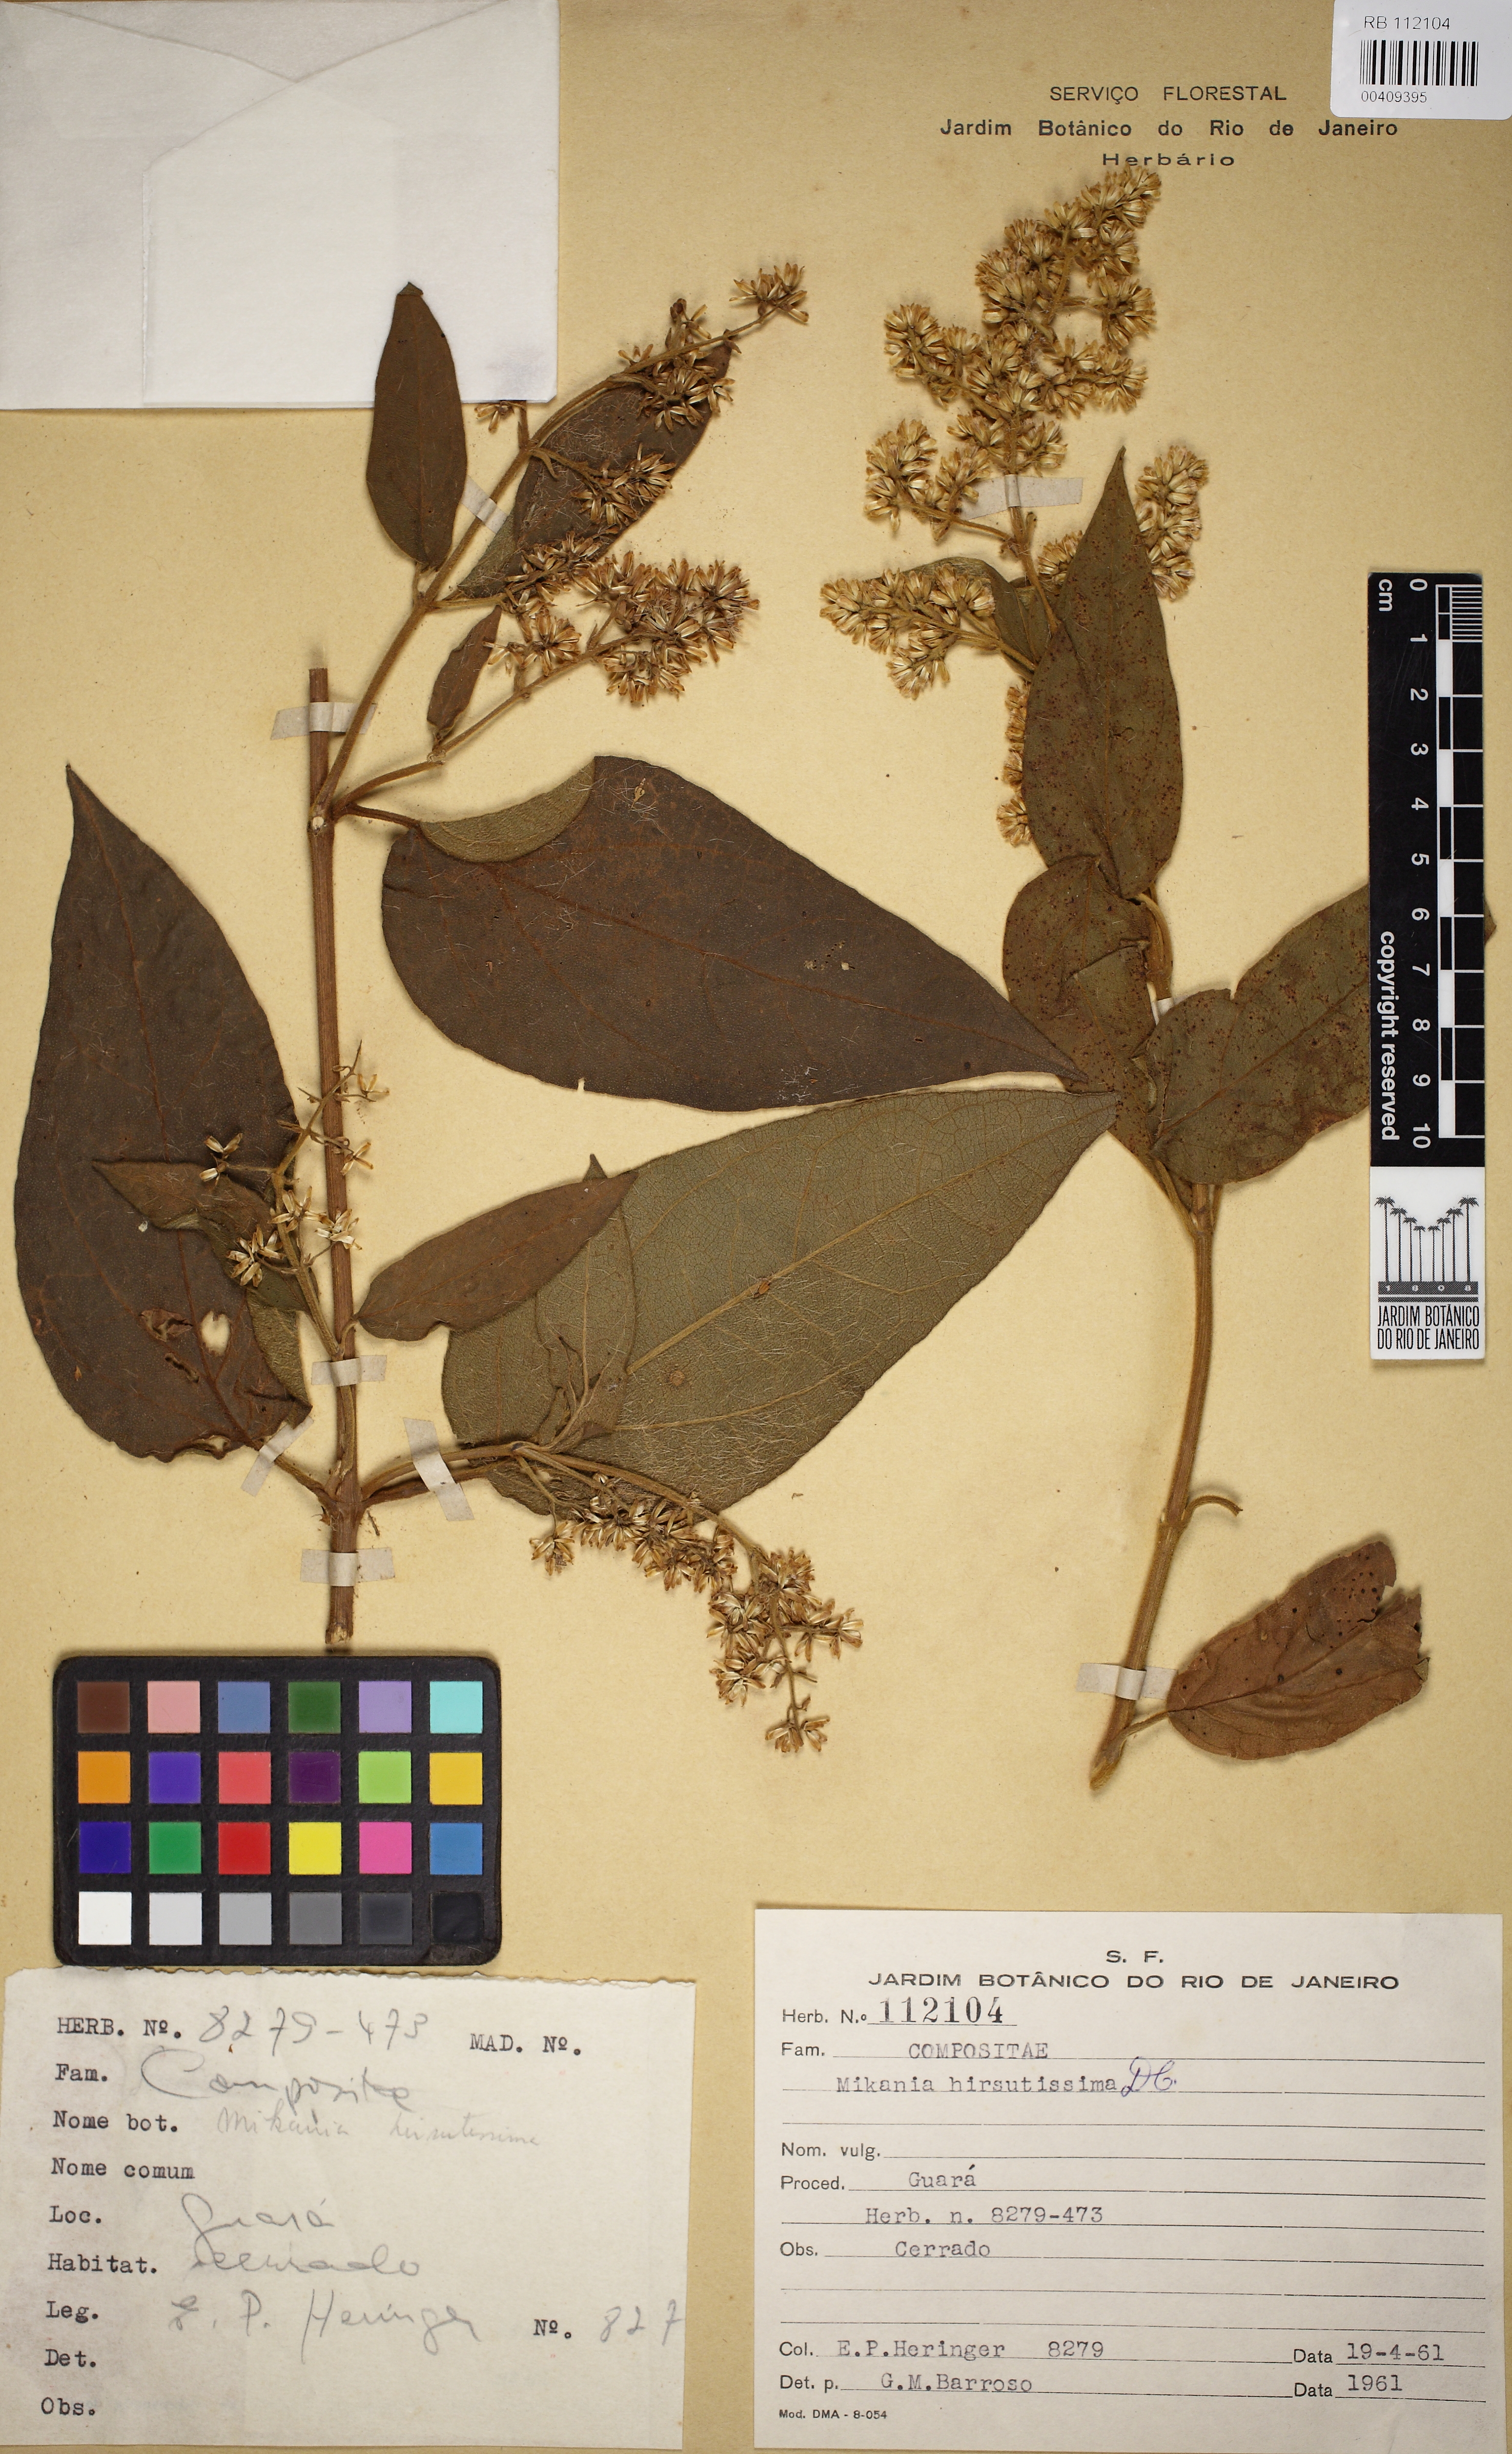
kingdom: Plantae
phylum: Tracheophyta
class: Magnoliopsida
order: Asterales
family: Asteraceae
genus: Mikania
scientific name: Mikania banisteriae
